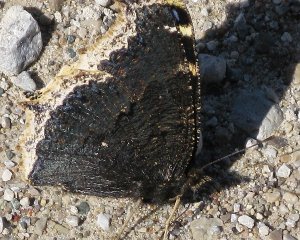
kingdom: Animalia
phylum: Arthropoda
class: Insecta
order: Lepidoptera
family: Nymphalidae
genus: Nymphalis
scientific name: Nymphalis antiopa
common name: Mourning Cloak
